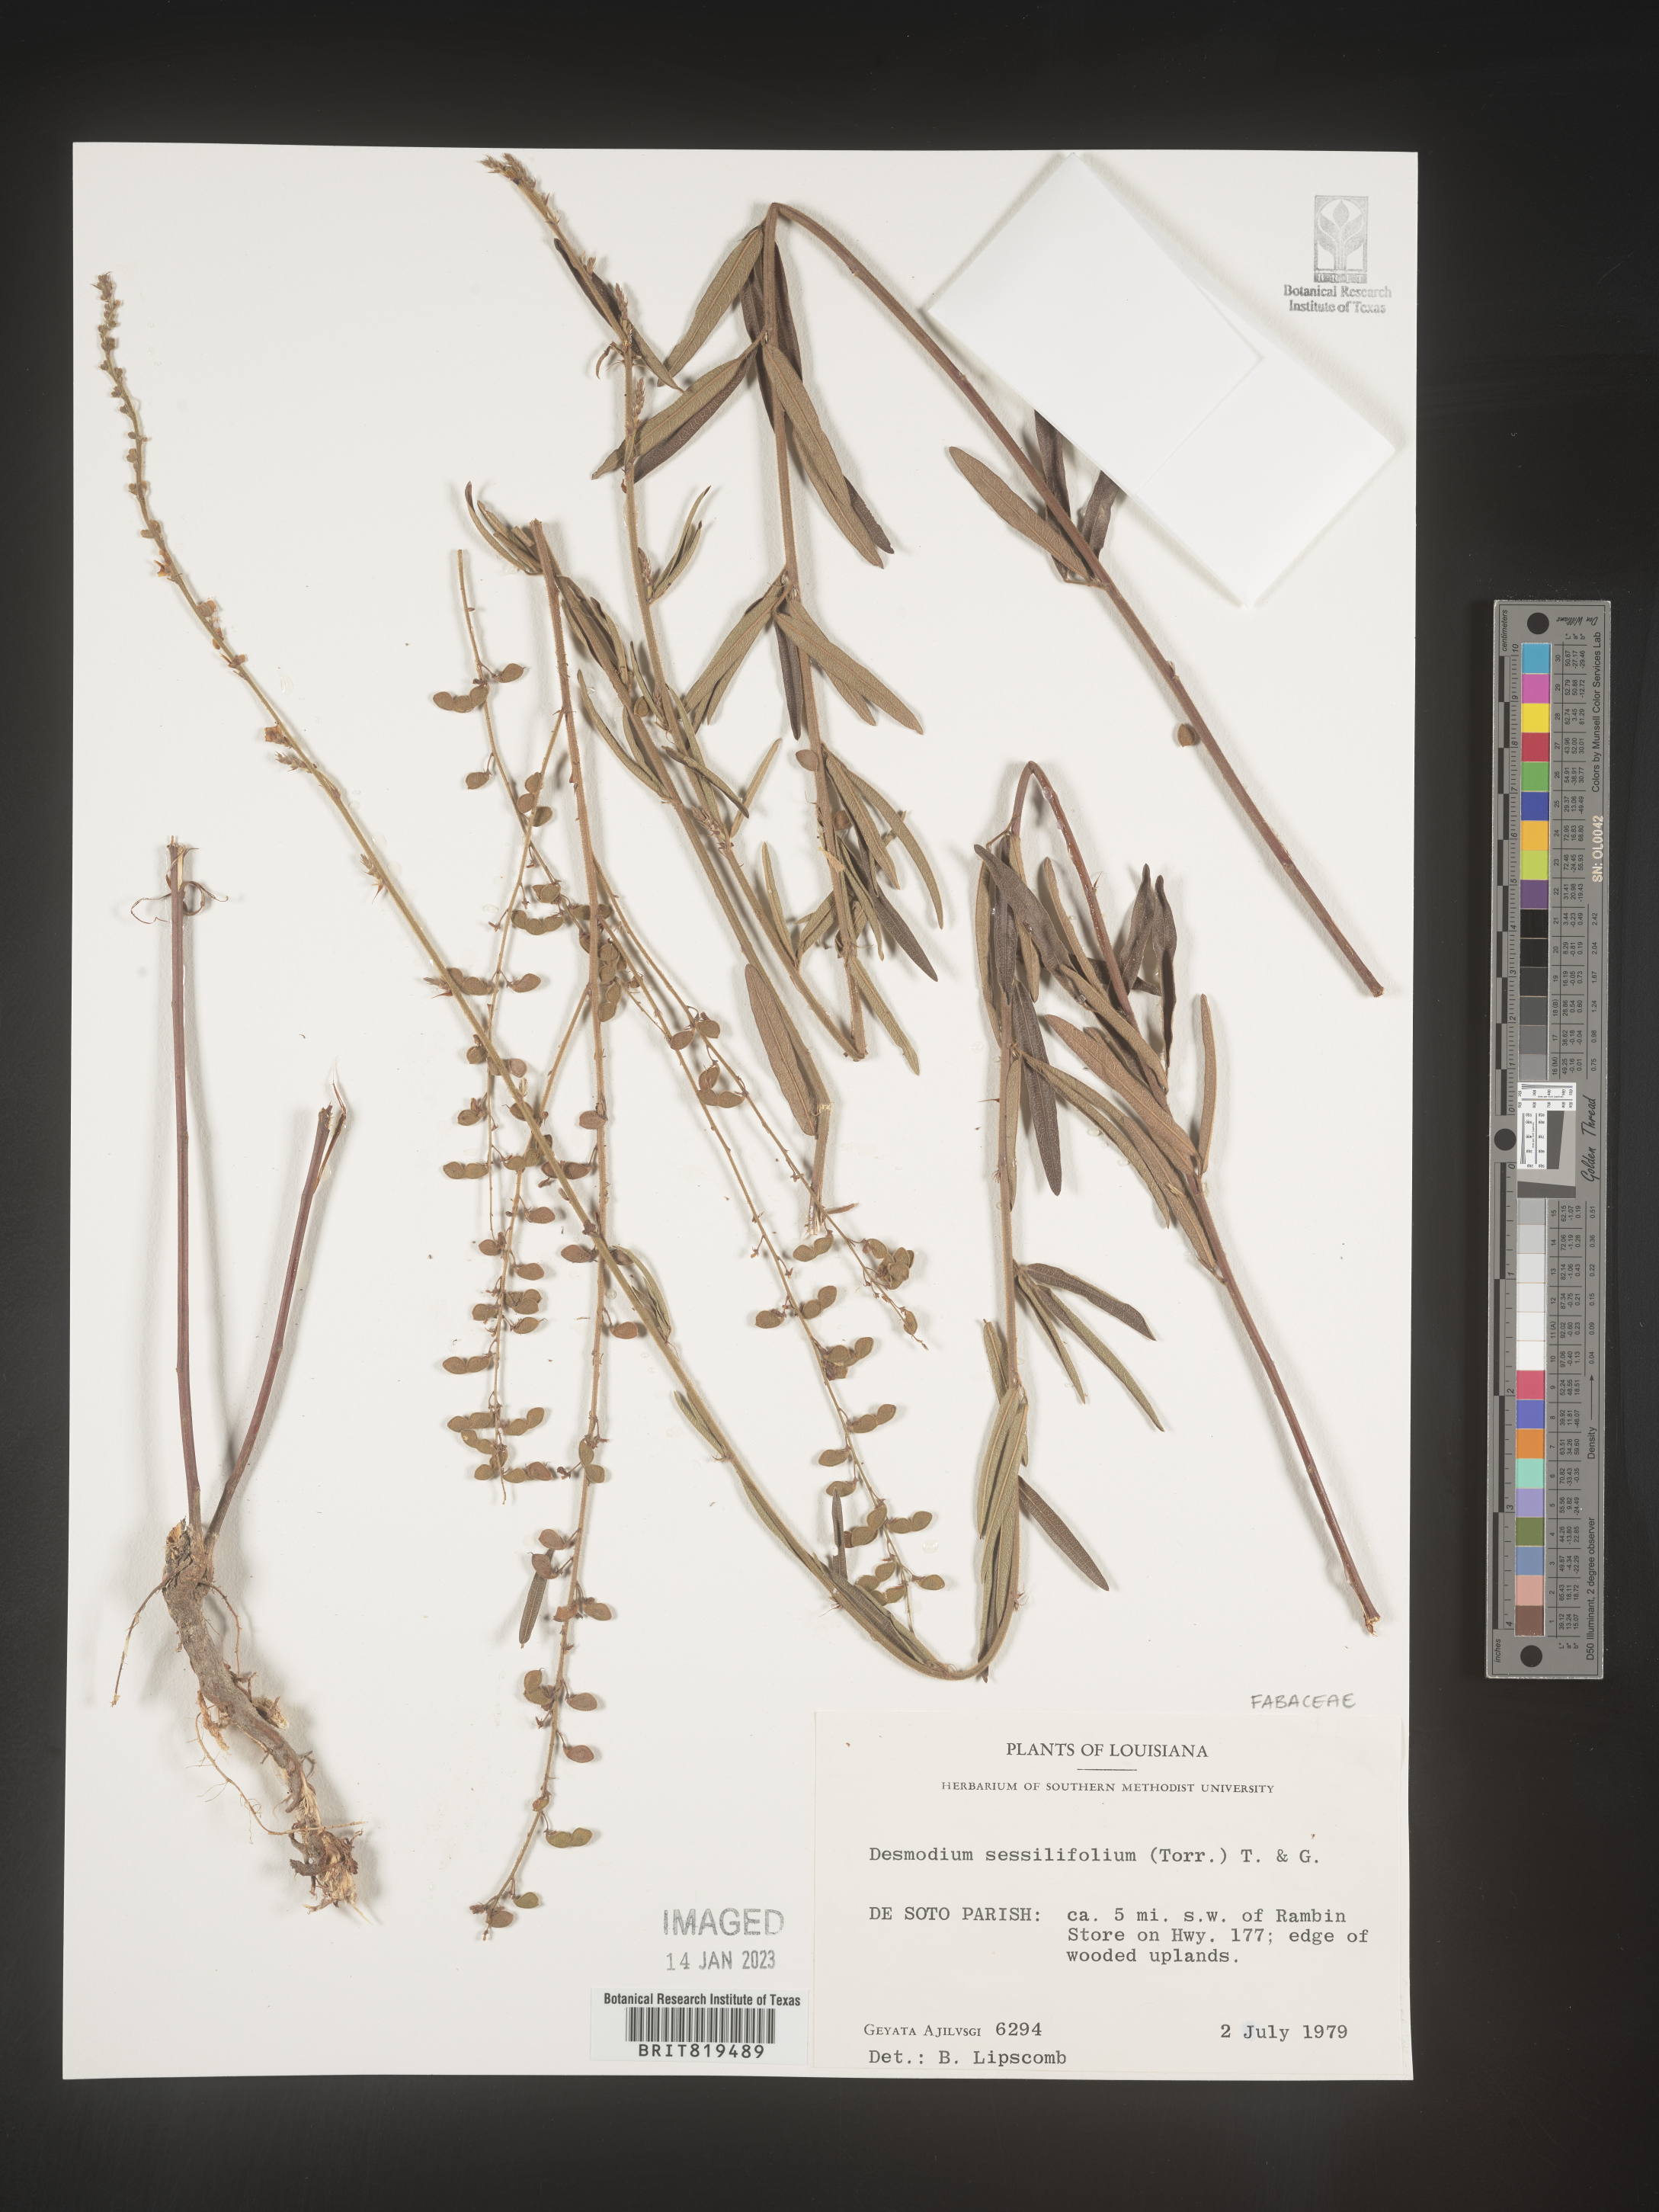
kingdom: Plantae
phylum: Tracheophyta
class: Magnoliopsida
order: Fabales
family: Fabaceae
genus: Desmodium
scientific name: Desmodium sessilifolium
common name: Sessile tick-clover
